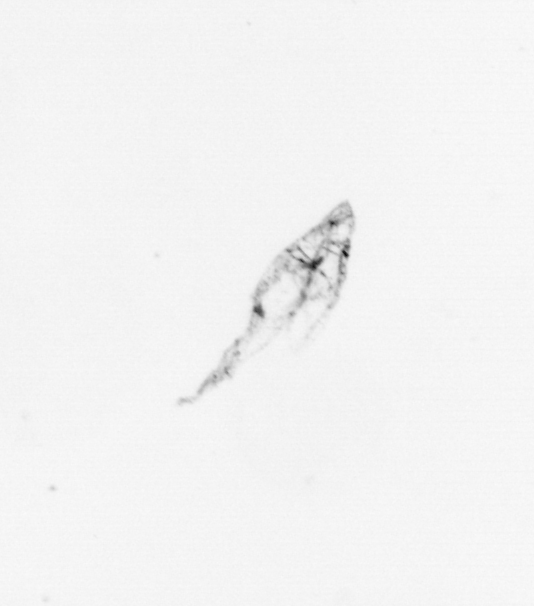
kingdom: Animalia
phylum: Arthropoda
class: Maxillopoda
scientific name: Maxillopoda
